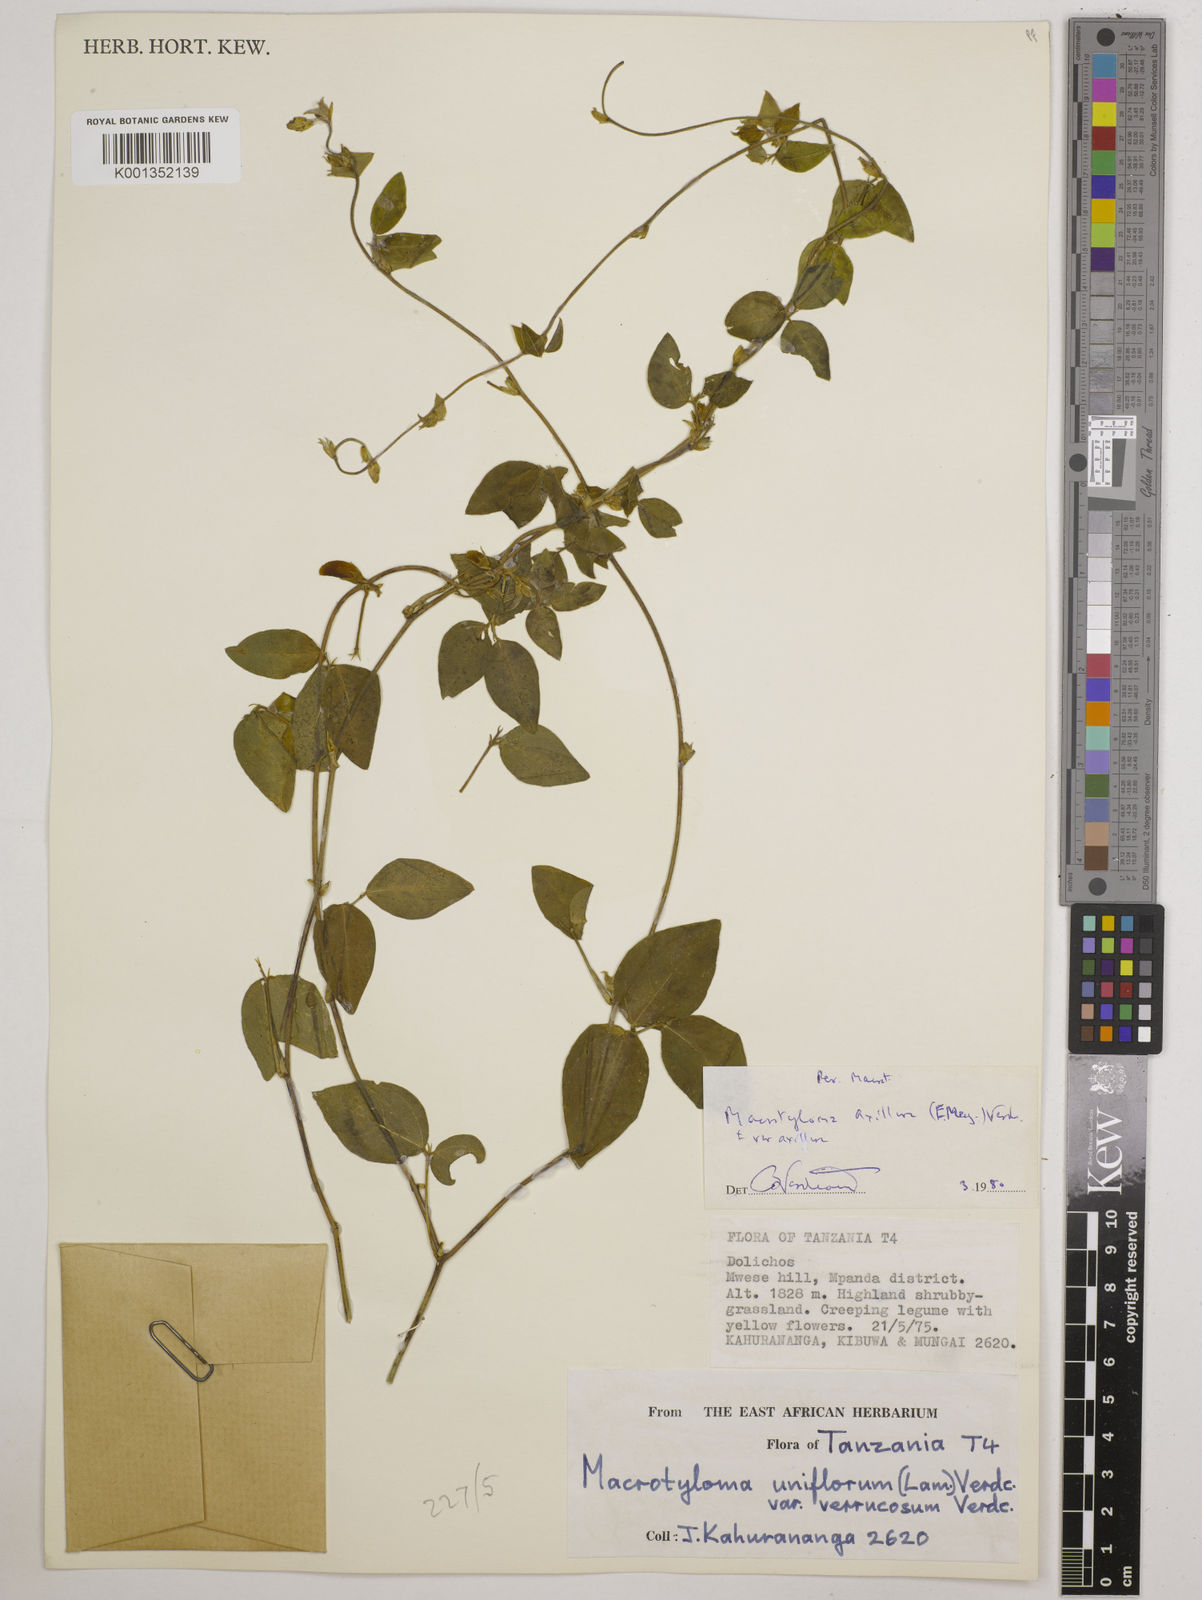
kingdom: Plantae
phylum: Tracheophyta
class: Magnoliopsida
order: Fabales
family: Fabaceae
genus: Macrotyloma
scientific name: Macrotyloma axillare
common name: Perennial horsegram
